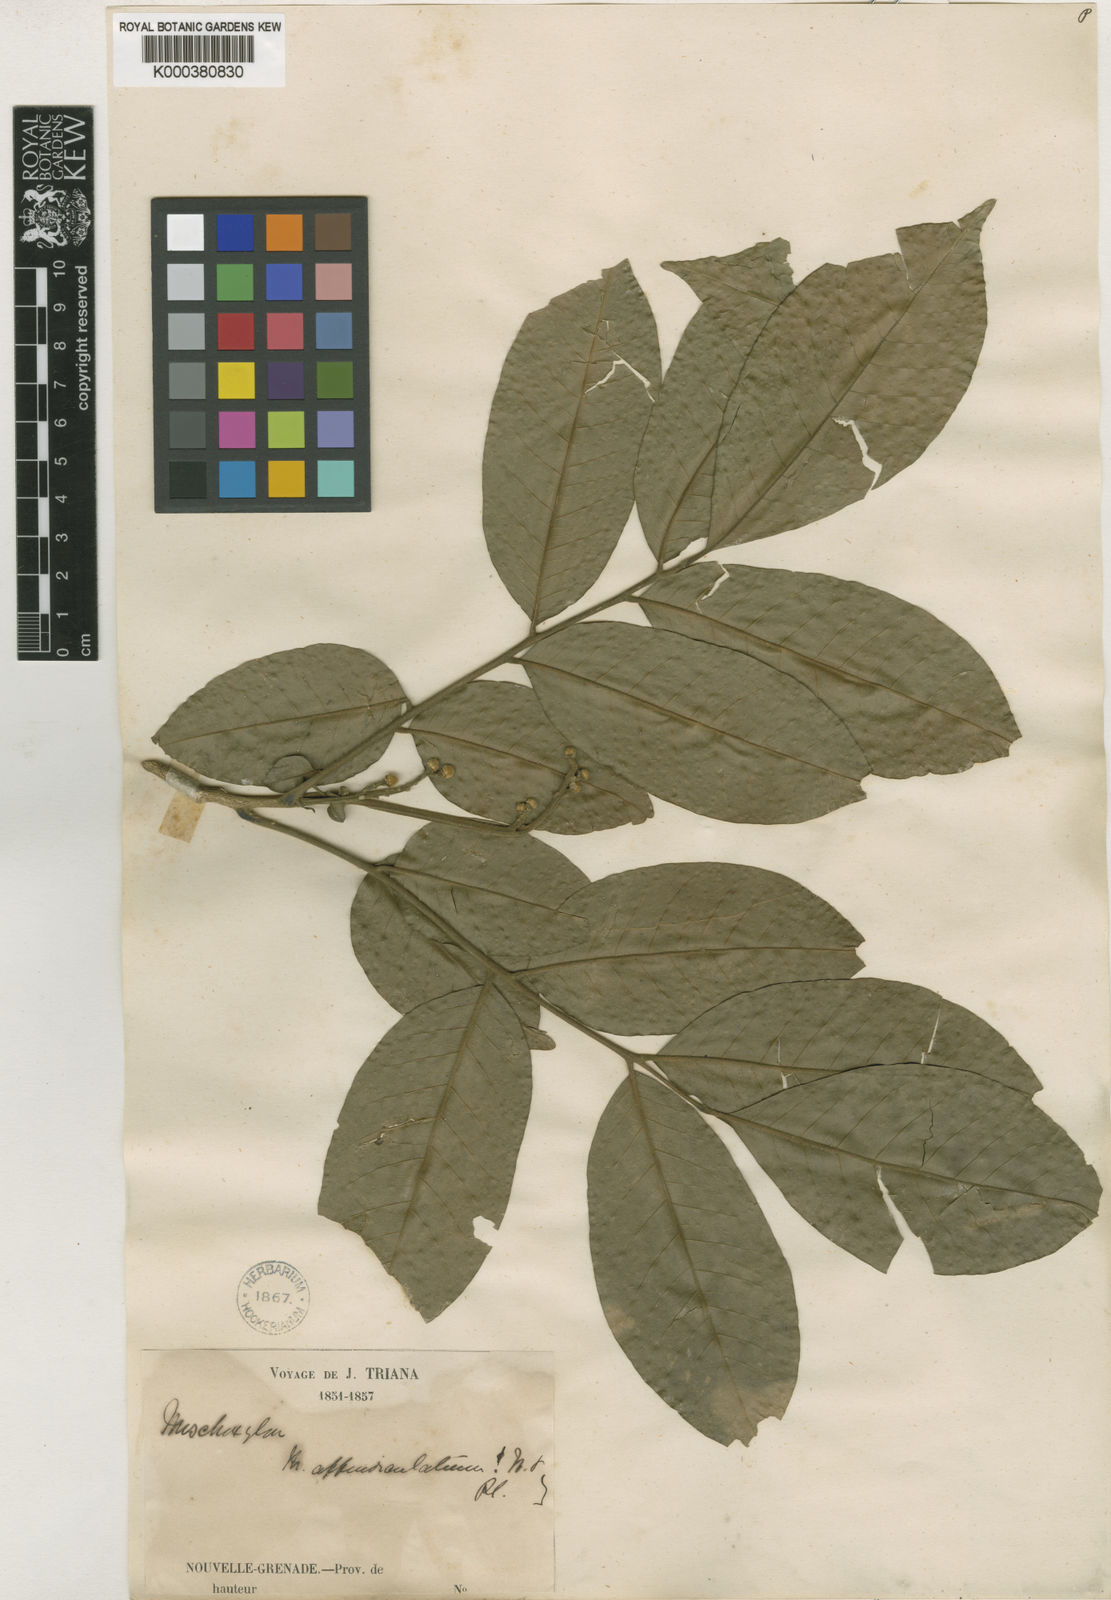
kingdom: Plantae
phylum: Tracheophyta
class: Magnoliopsida
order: Sapindales
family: Meliaceae
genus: Trichilia
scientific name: Trichilia appendiculata
